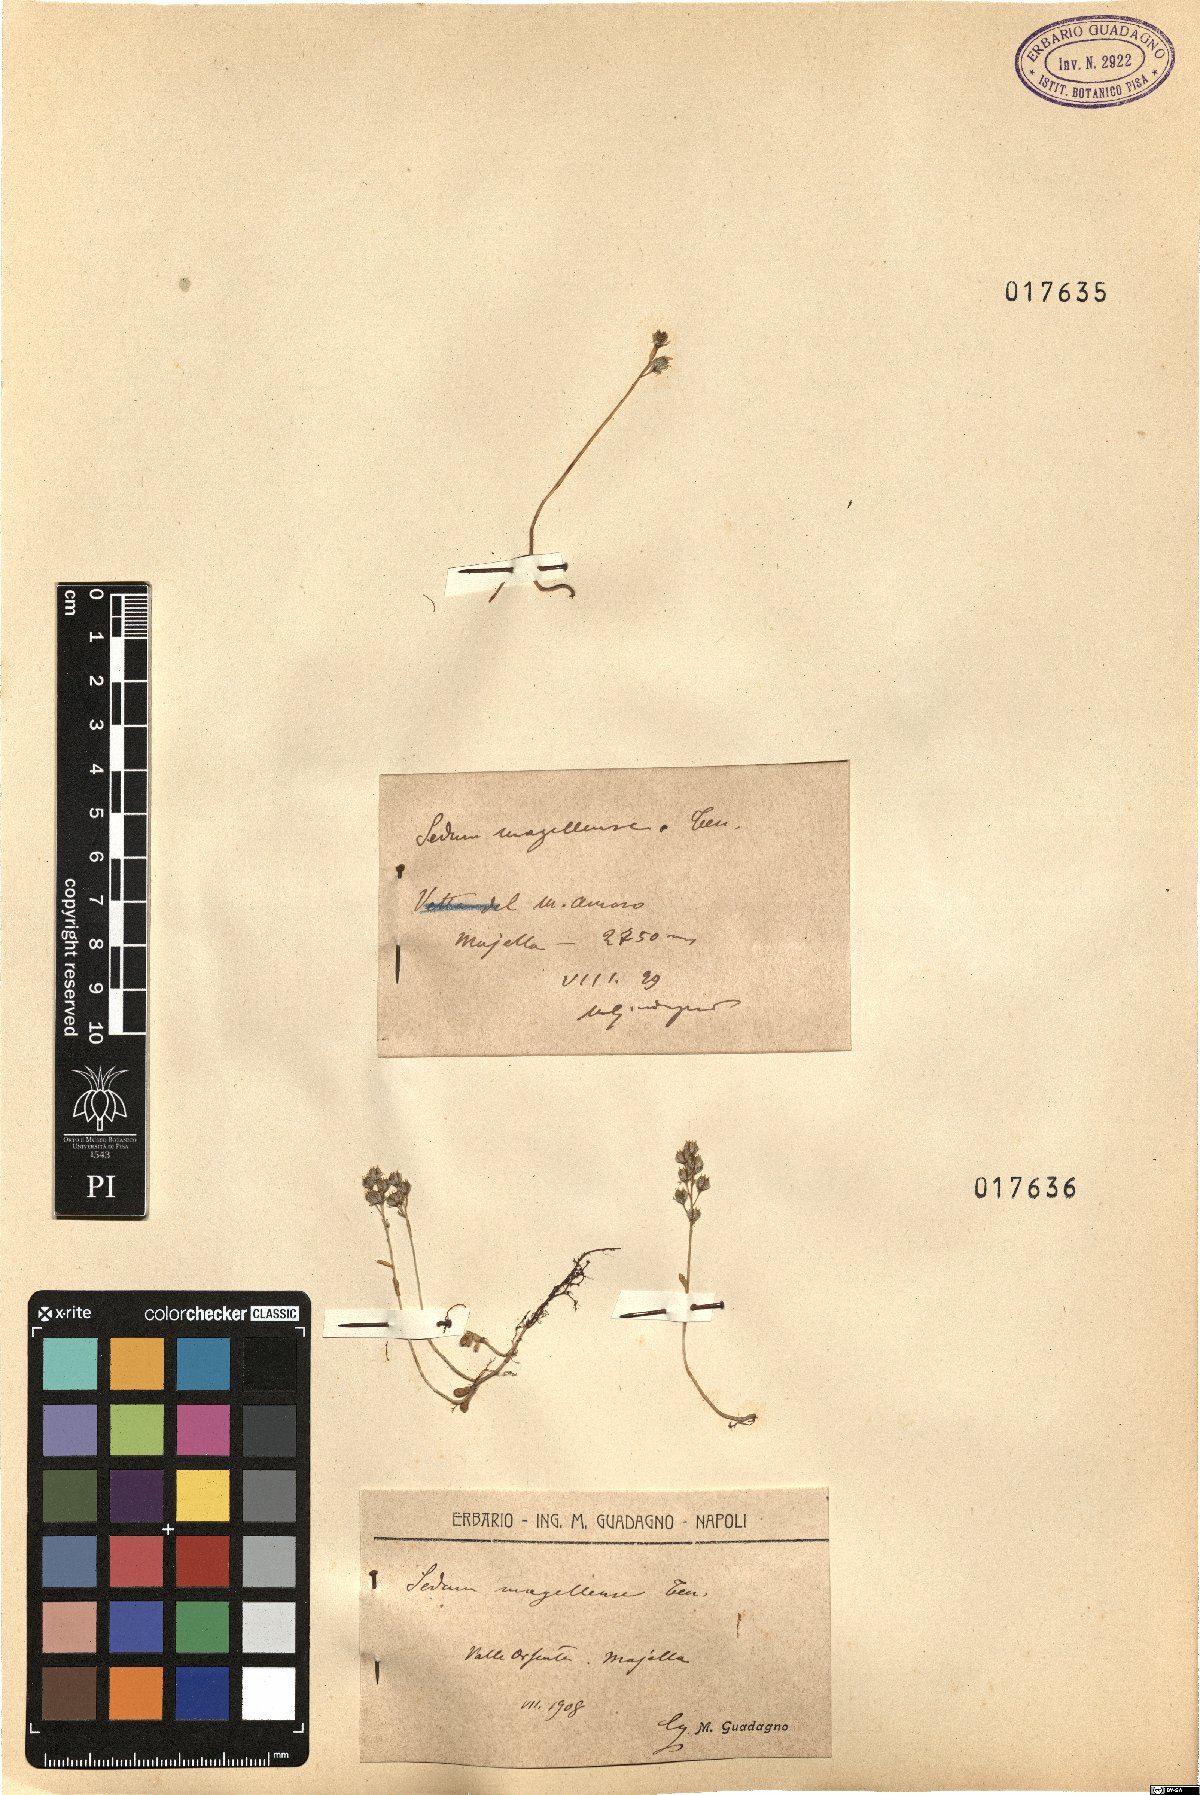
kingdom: Plantae
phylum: Tracheophyta
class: Magnoliopsida
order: Saxifragales
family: Crassulaceae
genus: Sedum
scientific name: Sedum magellense
